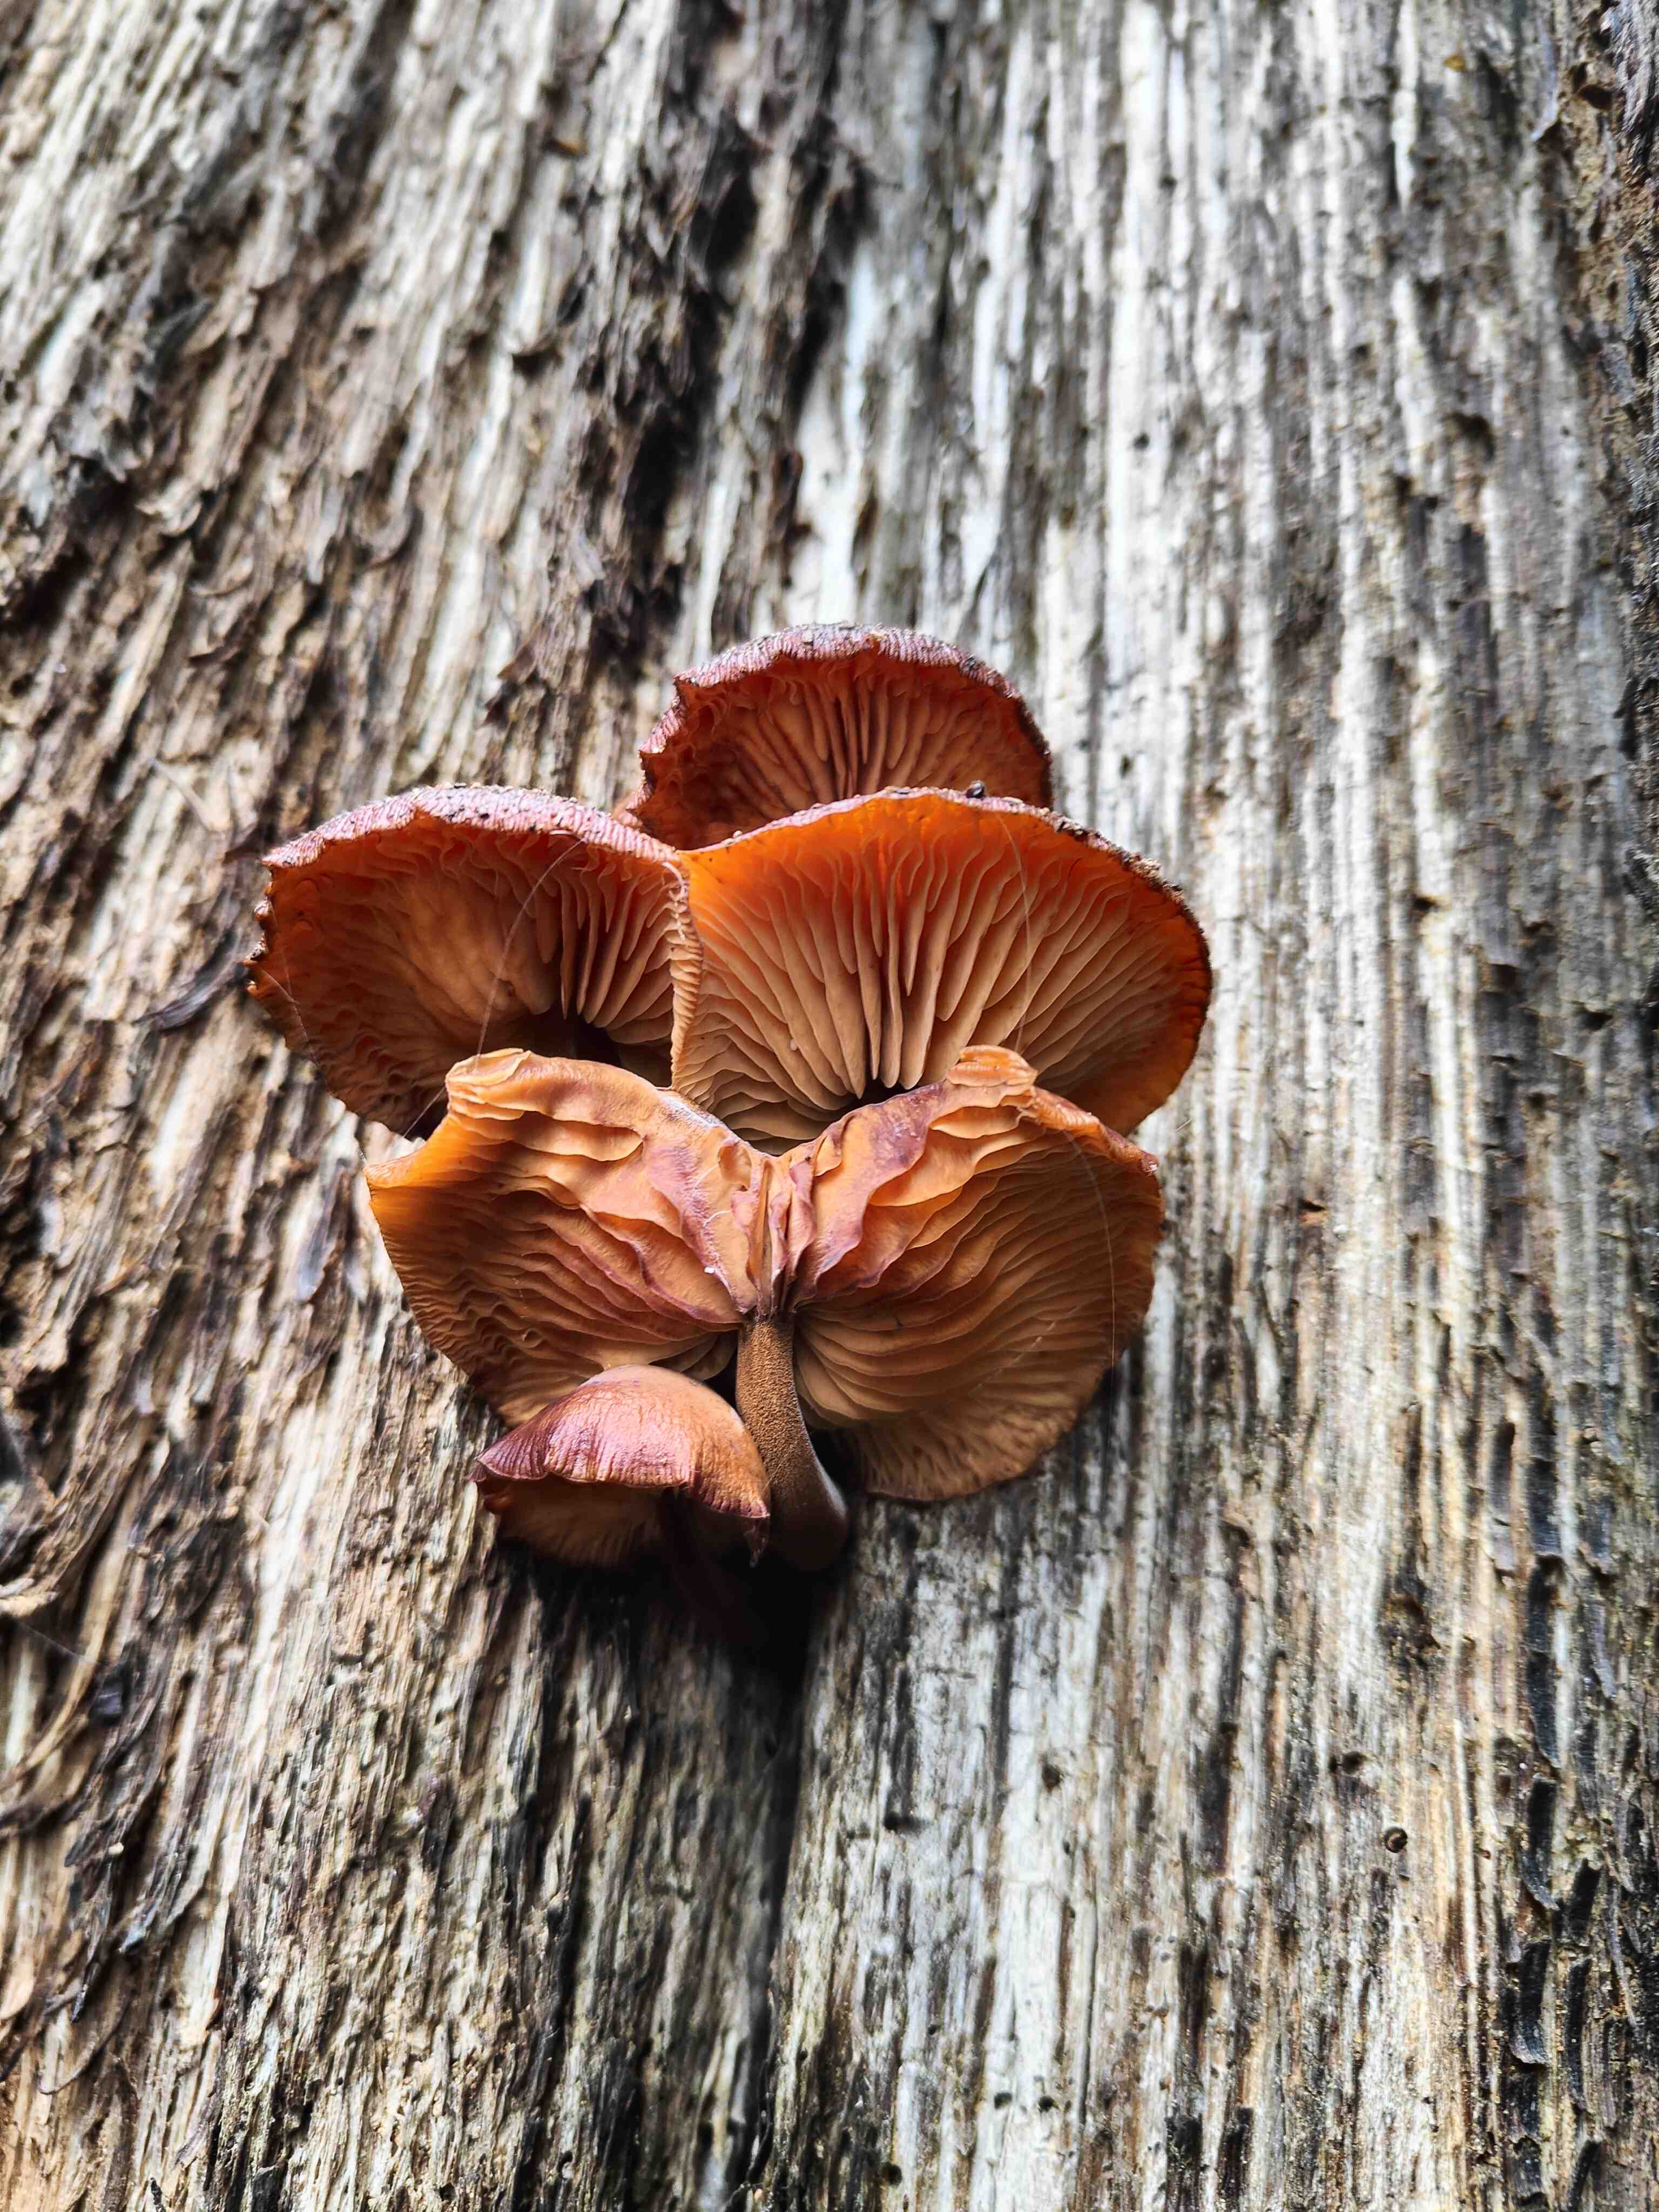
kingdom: Fungi
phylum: Basidiomycota
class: Agaricomycetes
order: Agaricales
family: Physalacriaceae
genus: Flammulina
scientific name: Flammulina velutipes
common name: gul fløjlsfod
